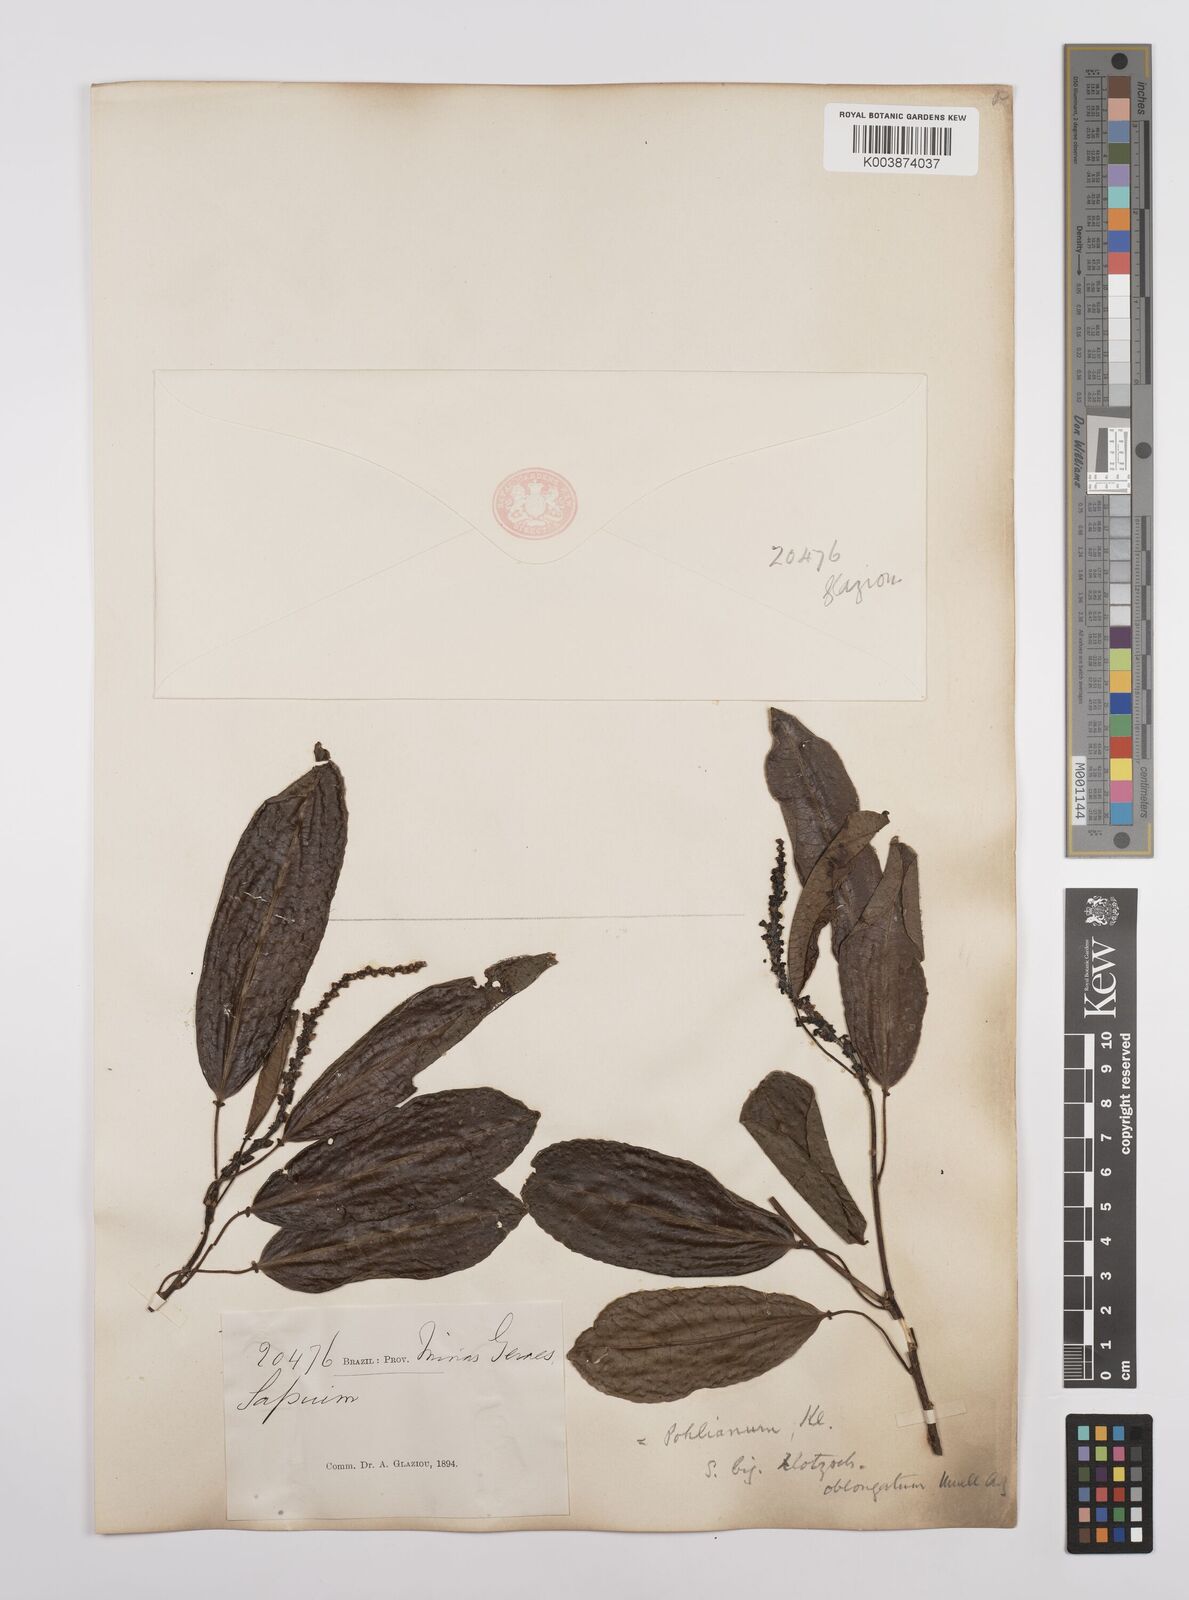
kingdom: Plantae
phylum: Tracheophyta
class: Magnoliopsida
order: Malpighiales
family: Euphorbiaceae
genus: Sapium
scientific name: Sapium glandulosum
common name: Milktree
